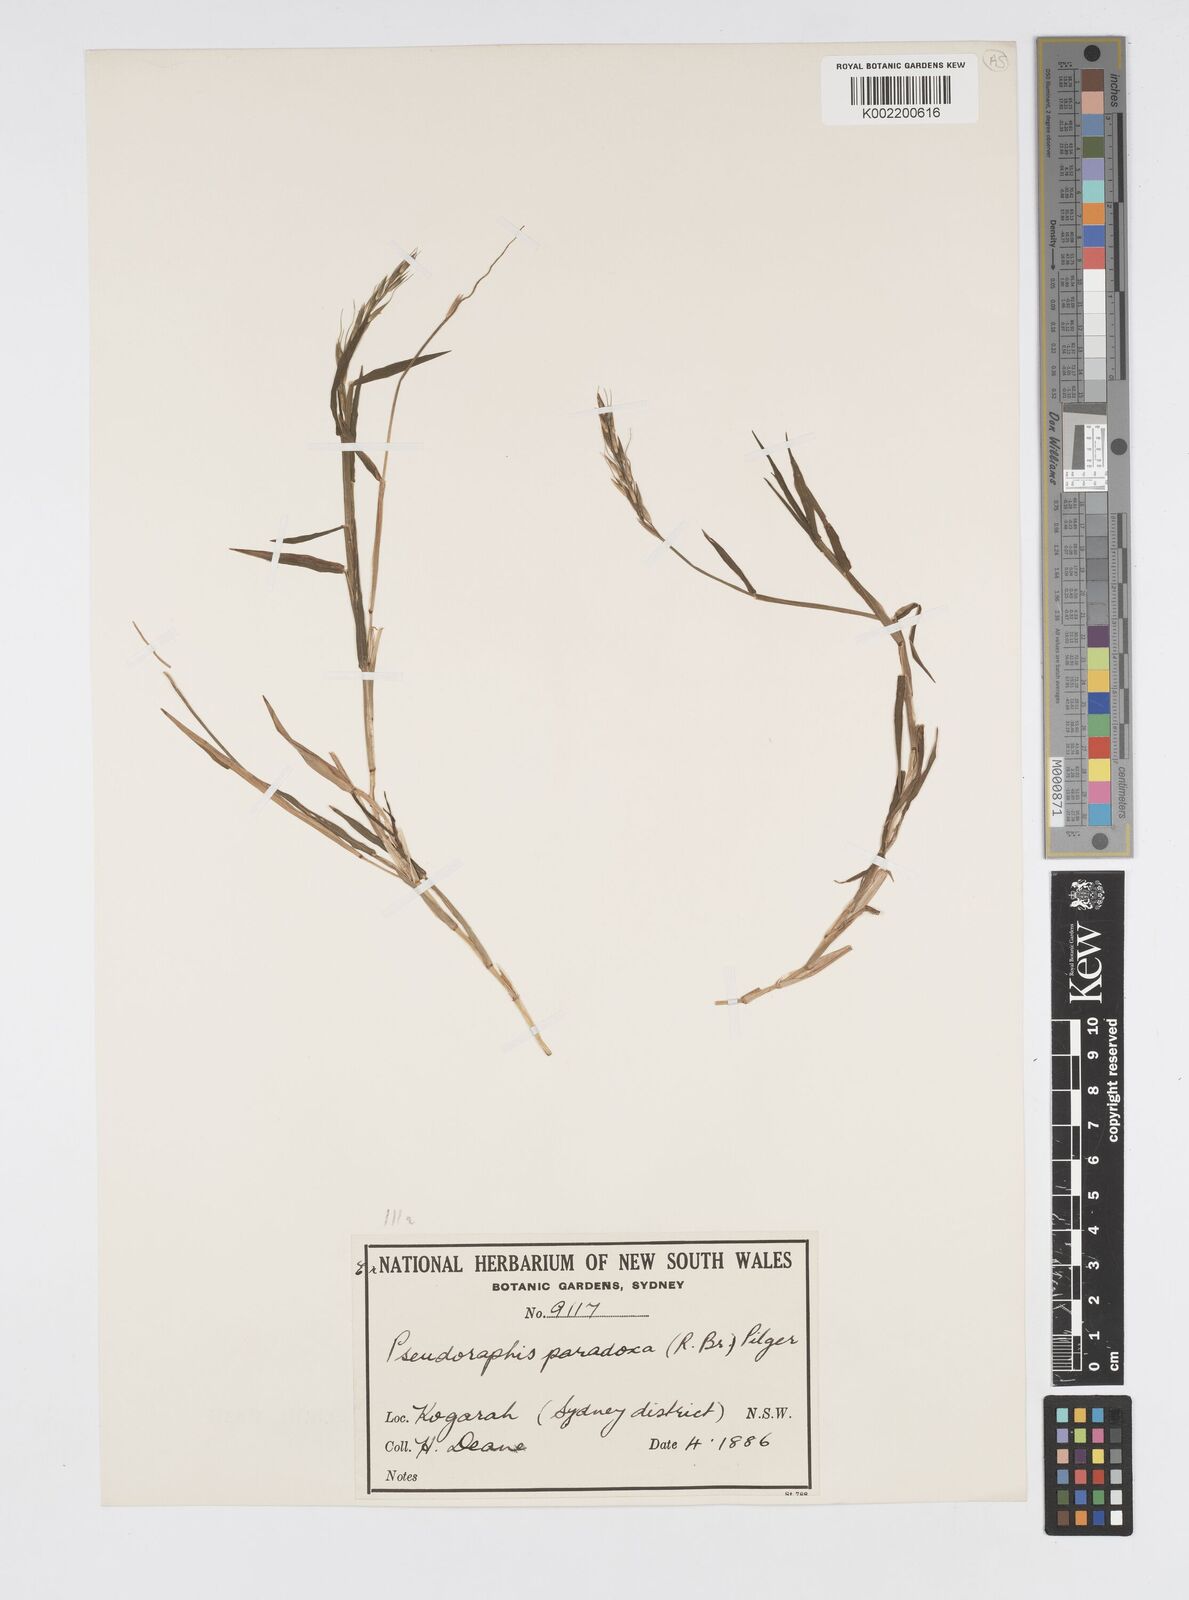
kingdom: Plantae
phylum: Tracheophyta
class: Liliopsida
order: Poales
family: Poaceae
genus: Pseudoraphis
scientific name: Pseudoraphis paradoxa
